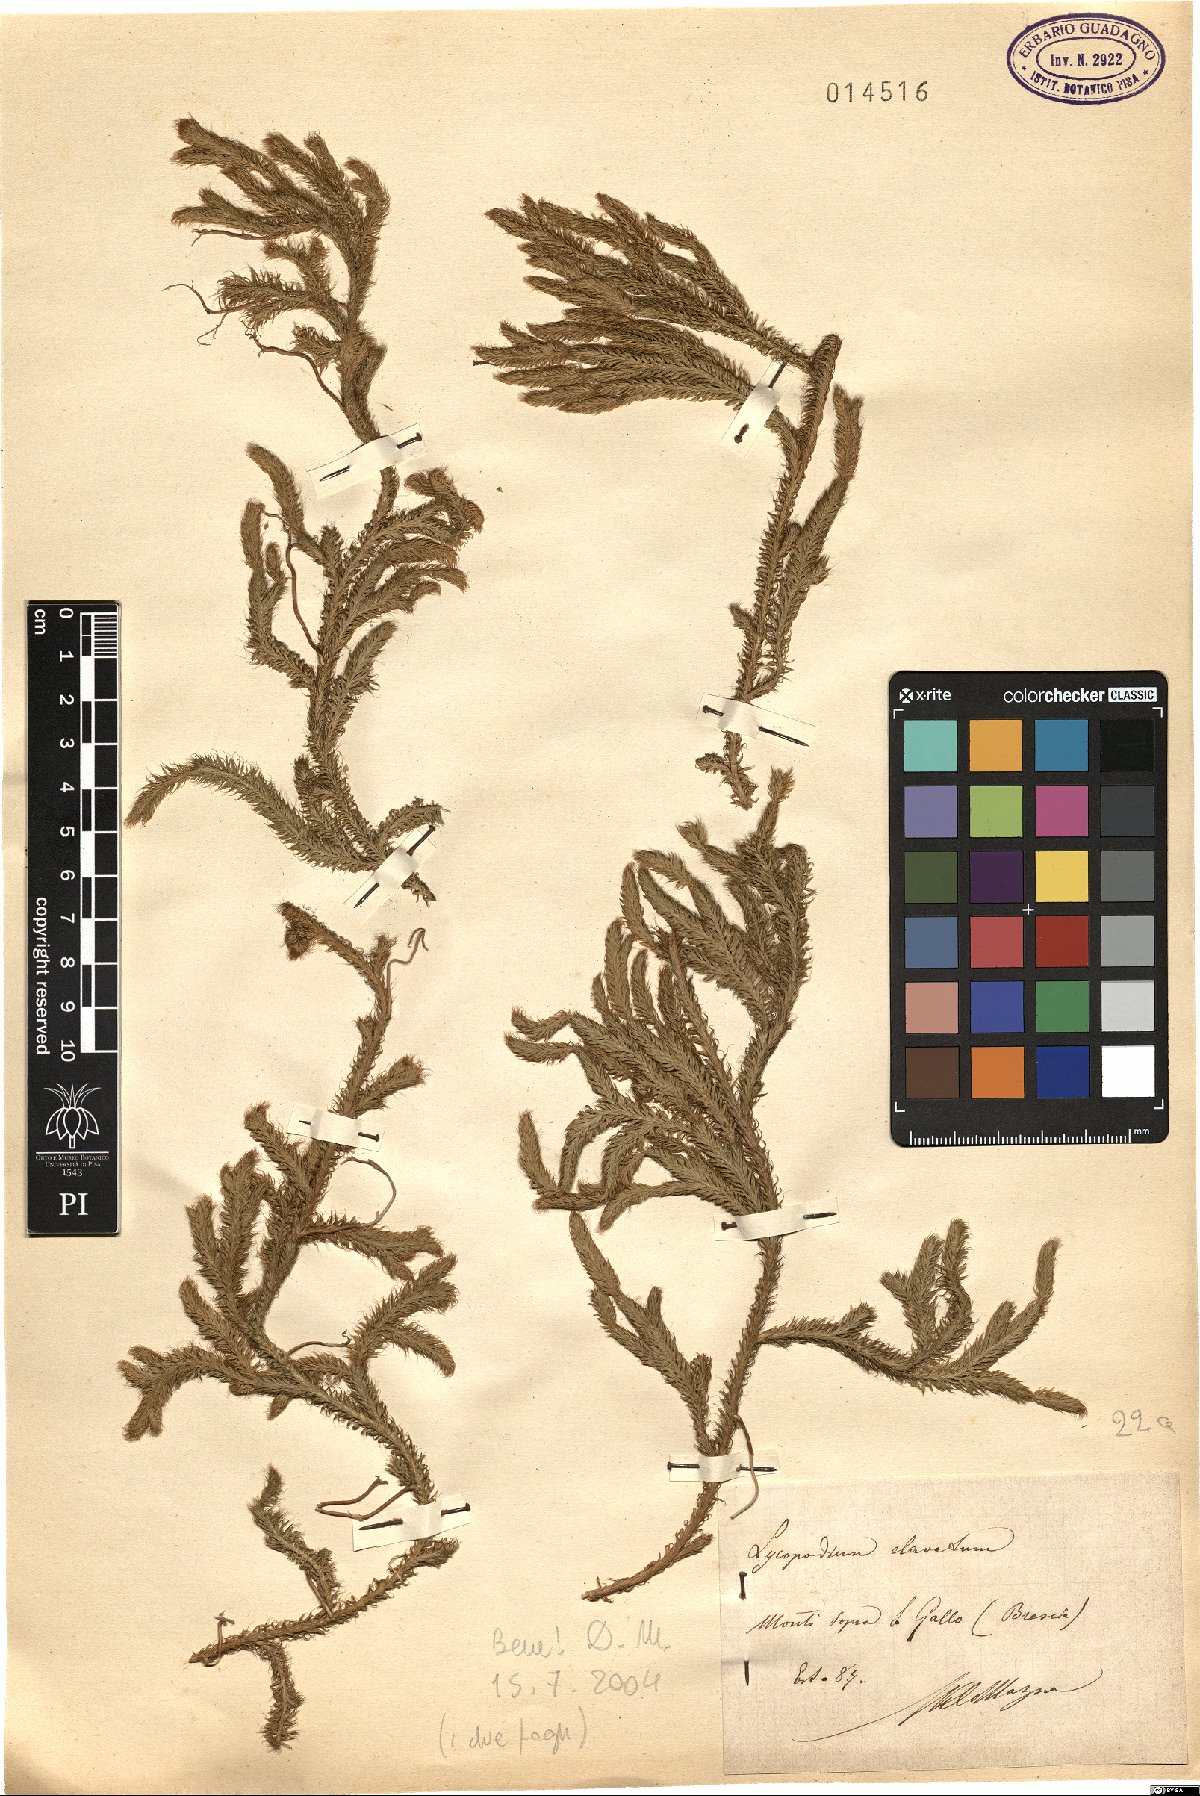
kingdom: Plantae
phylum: Tracheophyta
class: Lycopodiopsida
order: Lycopodiales
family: Lycopodiaceae
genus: Lycopodium
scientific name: Lycopodium clavatum
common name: Stag's-horn clubmoss
